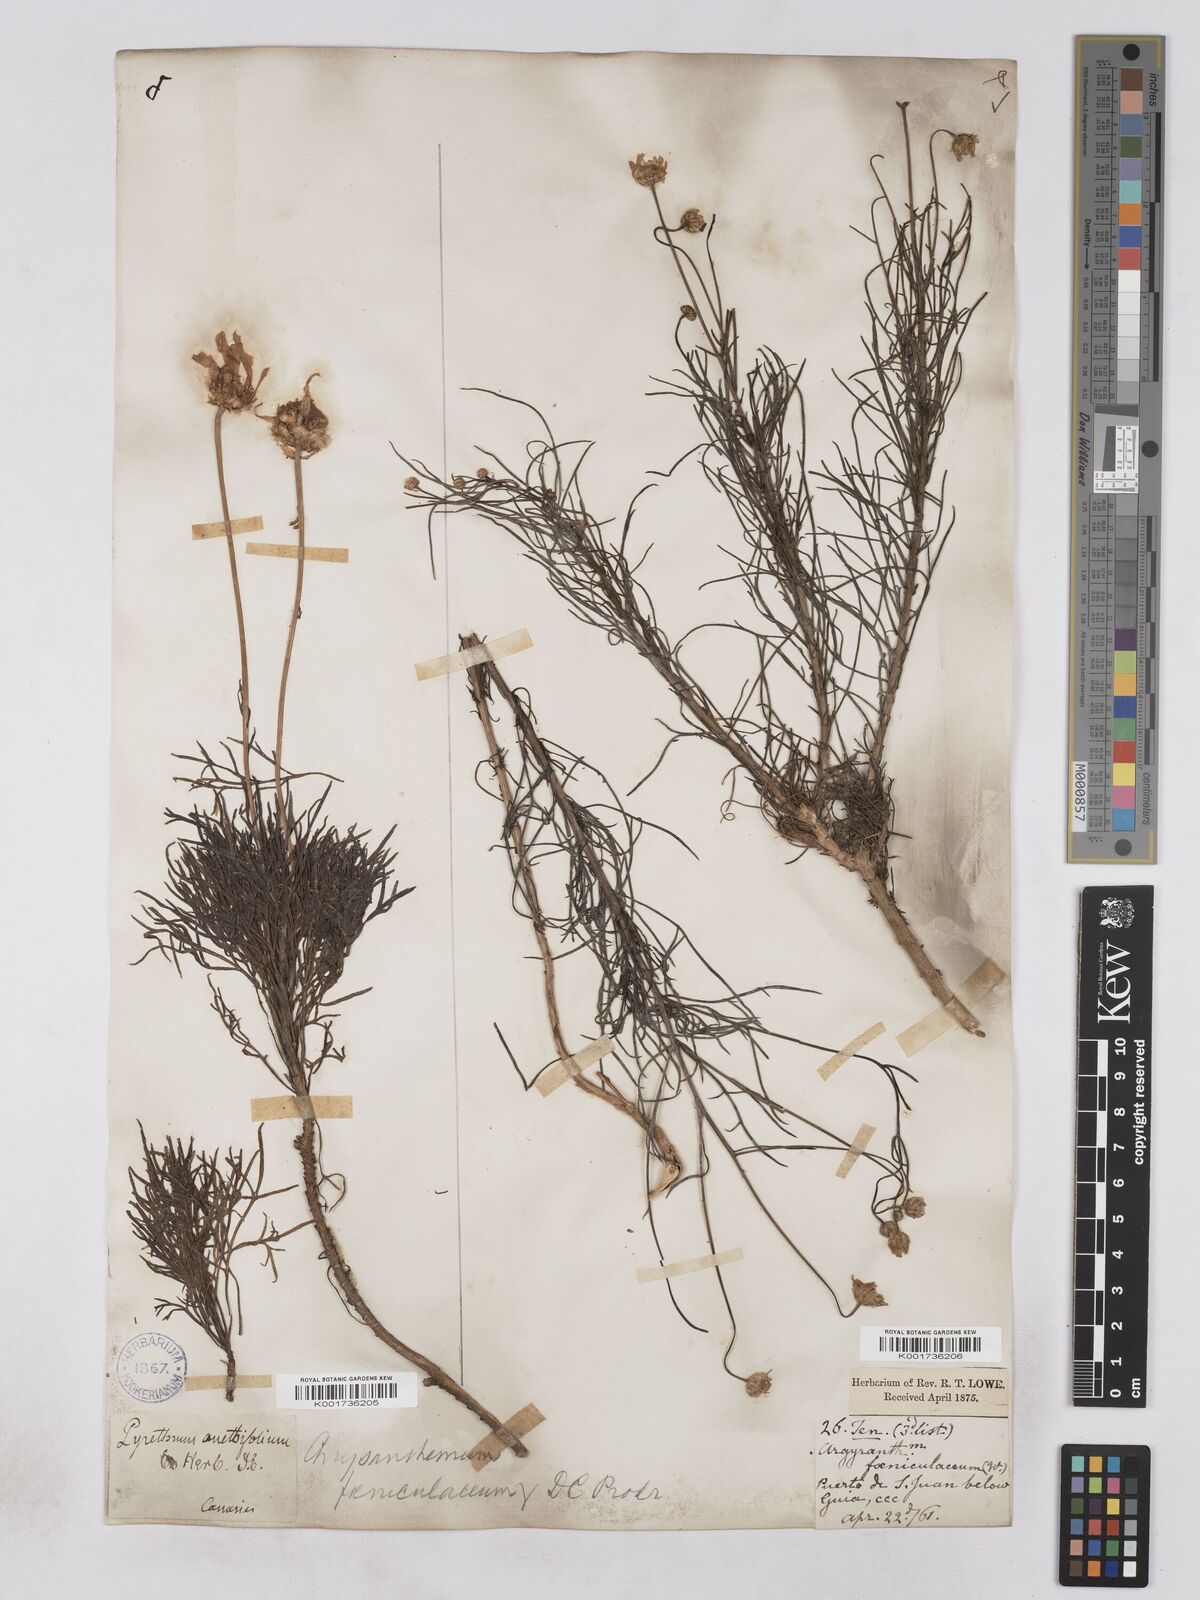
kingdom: Plantae
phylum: Tracheophyta
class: Magnoliopsida
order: Asterales
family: Asteraceae
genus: Argyranthemum
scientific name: Argyranthemum gracile
